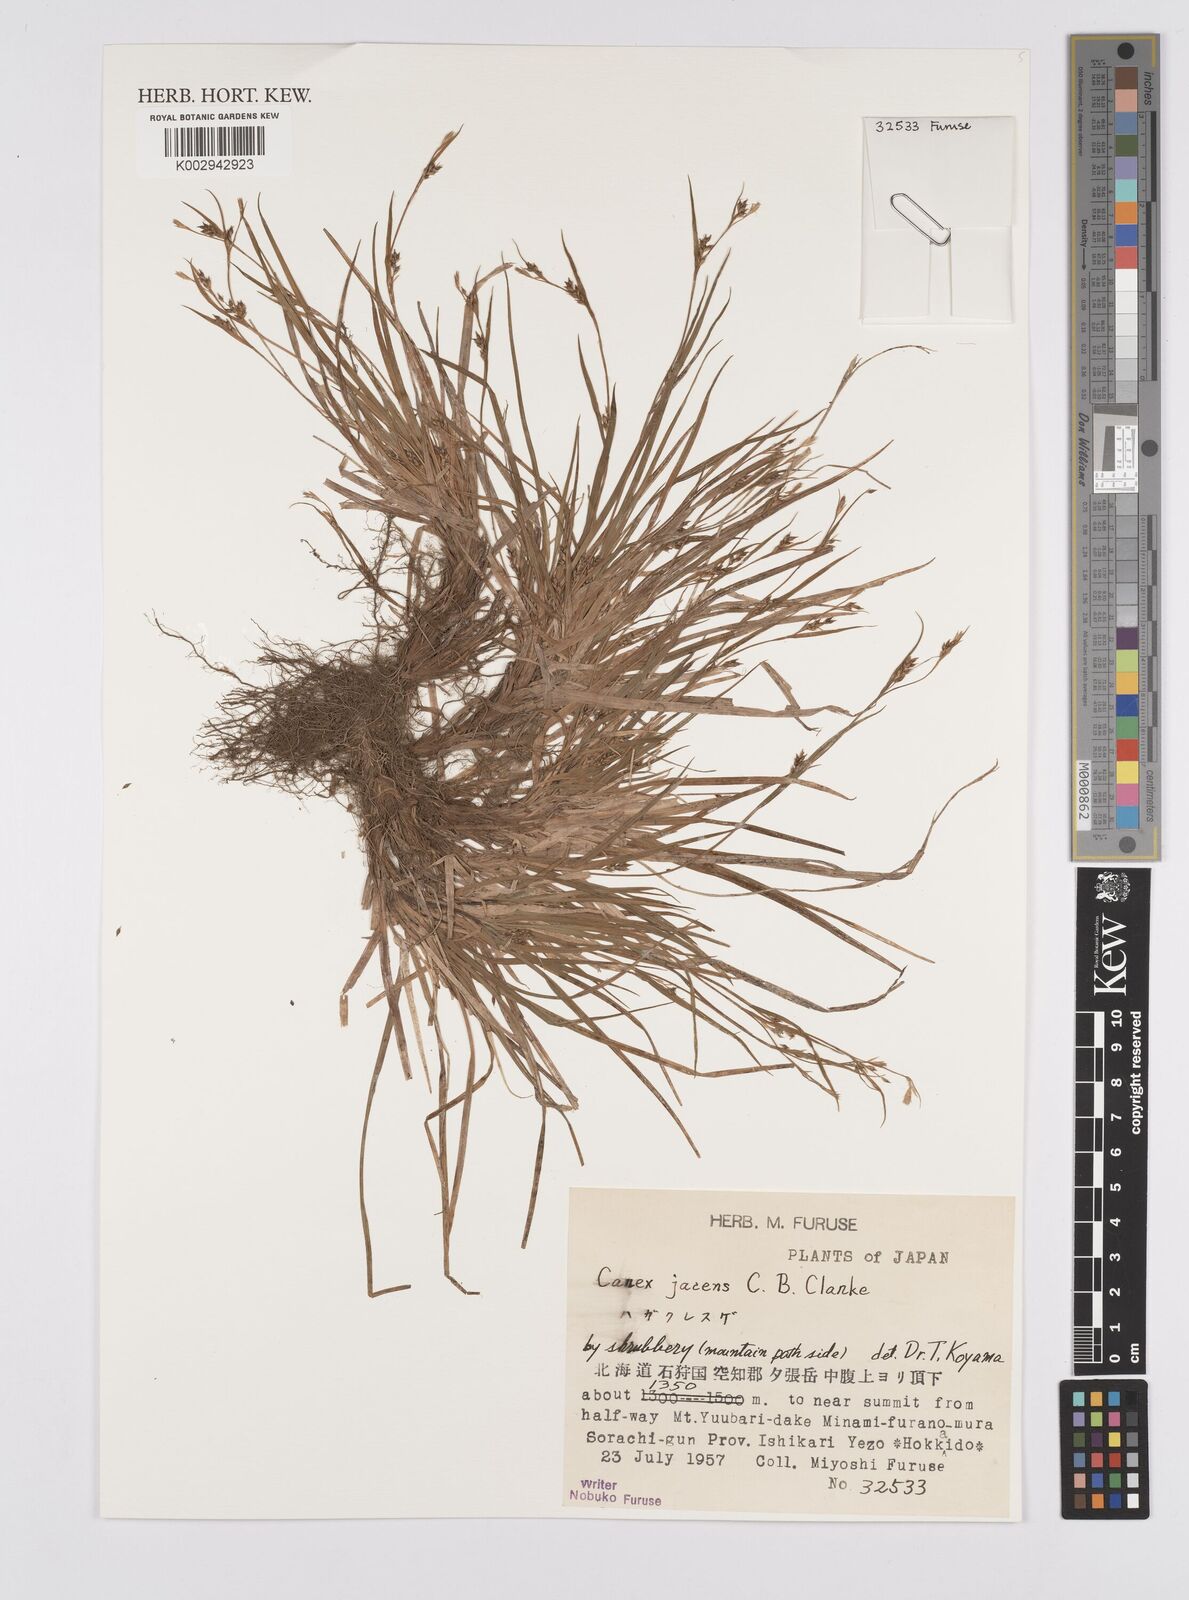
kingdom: Plantae
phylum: Tracheophyta
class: Liliopsida
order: Poales
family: Cyperaceae
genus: Carex
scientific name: Carex jacens
